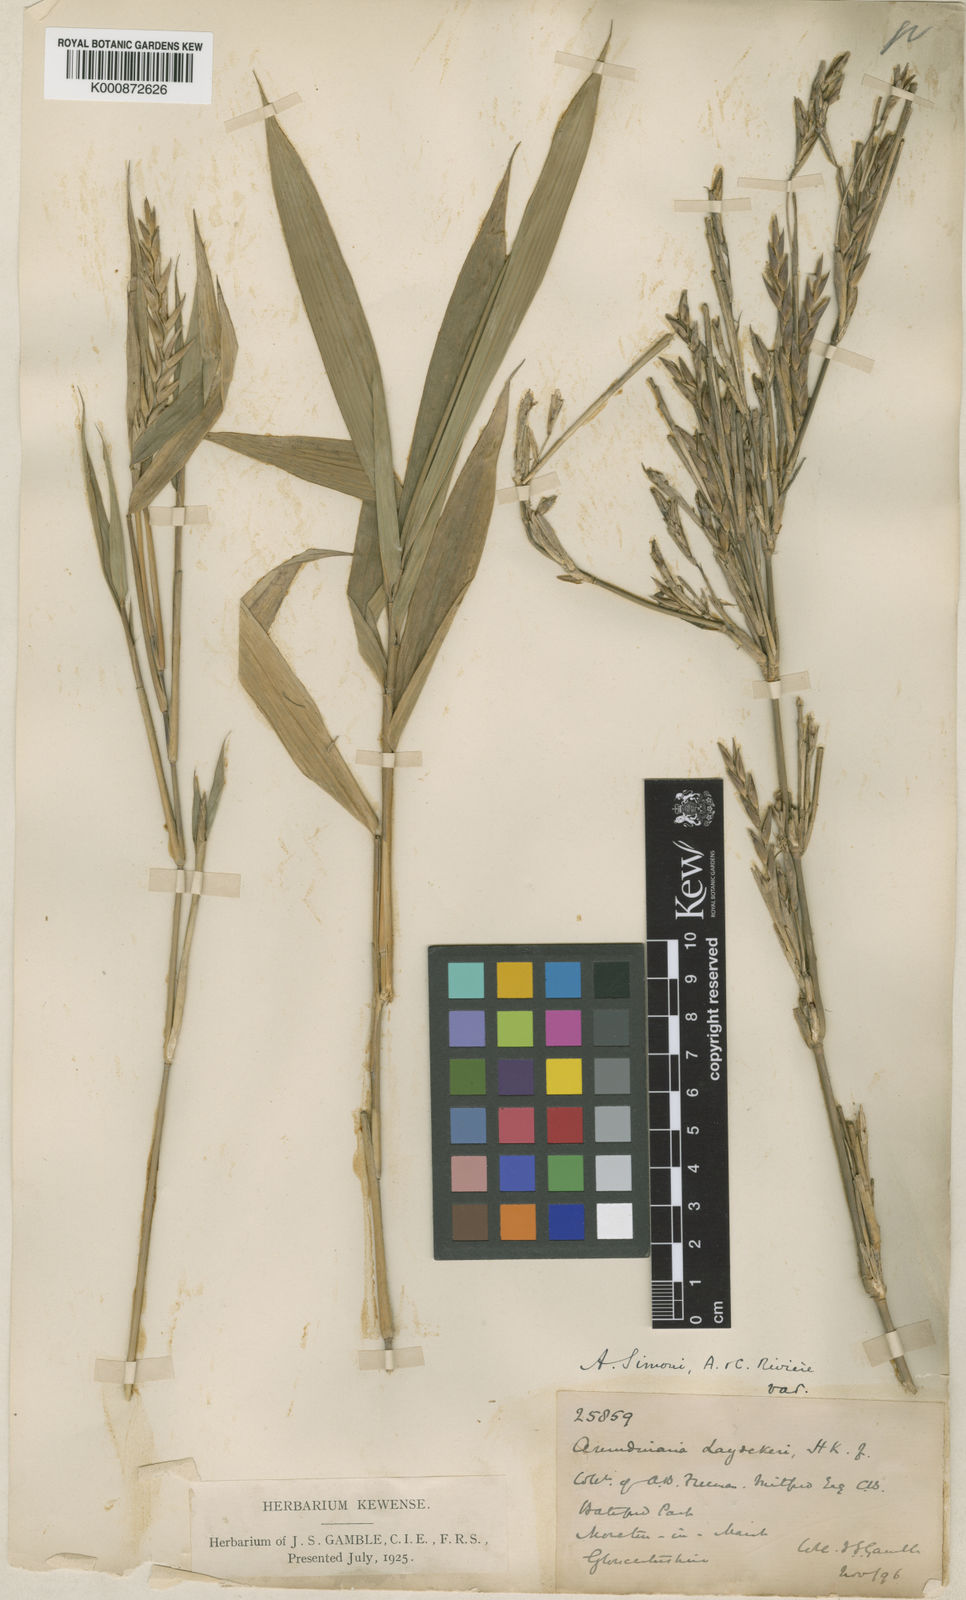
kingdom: Plantae
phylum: Tracheophyta
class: Liliopsida
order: Poales
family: Poaceae
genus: Pleioblastus
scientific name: Pleioblastus argenteostriatus
